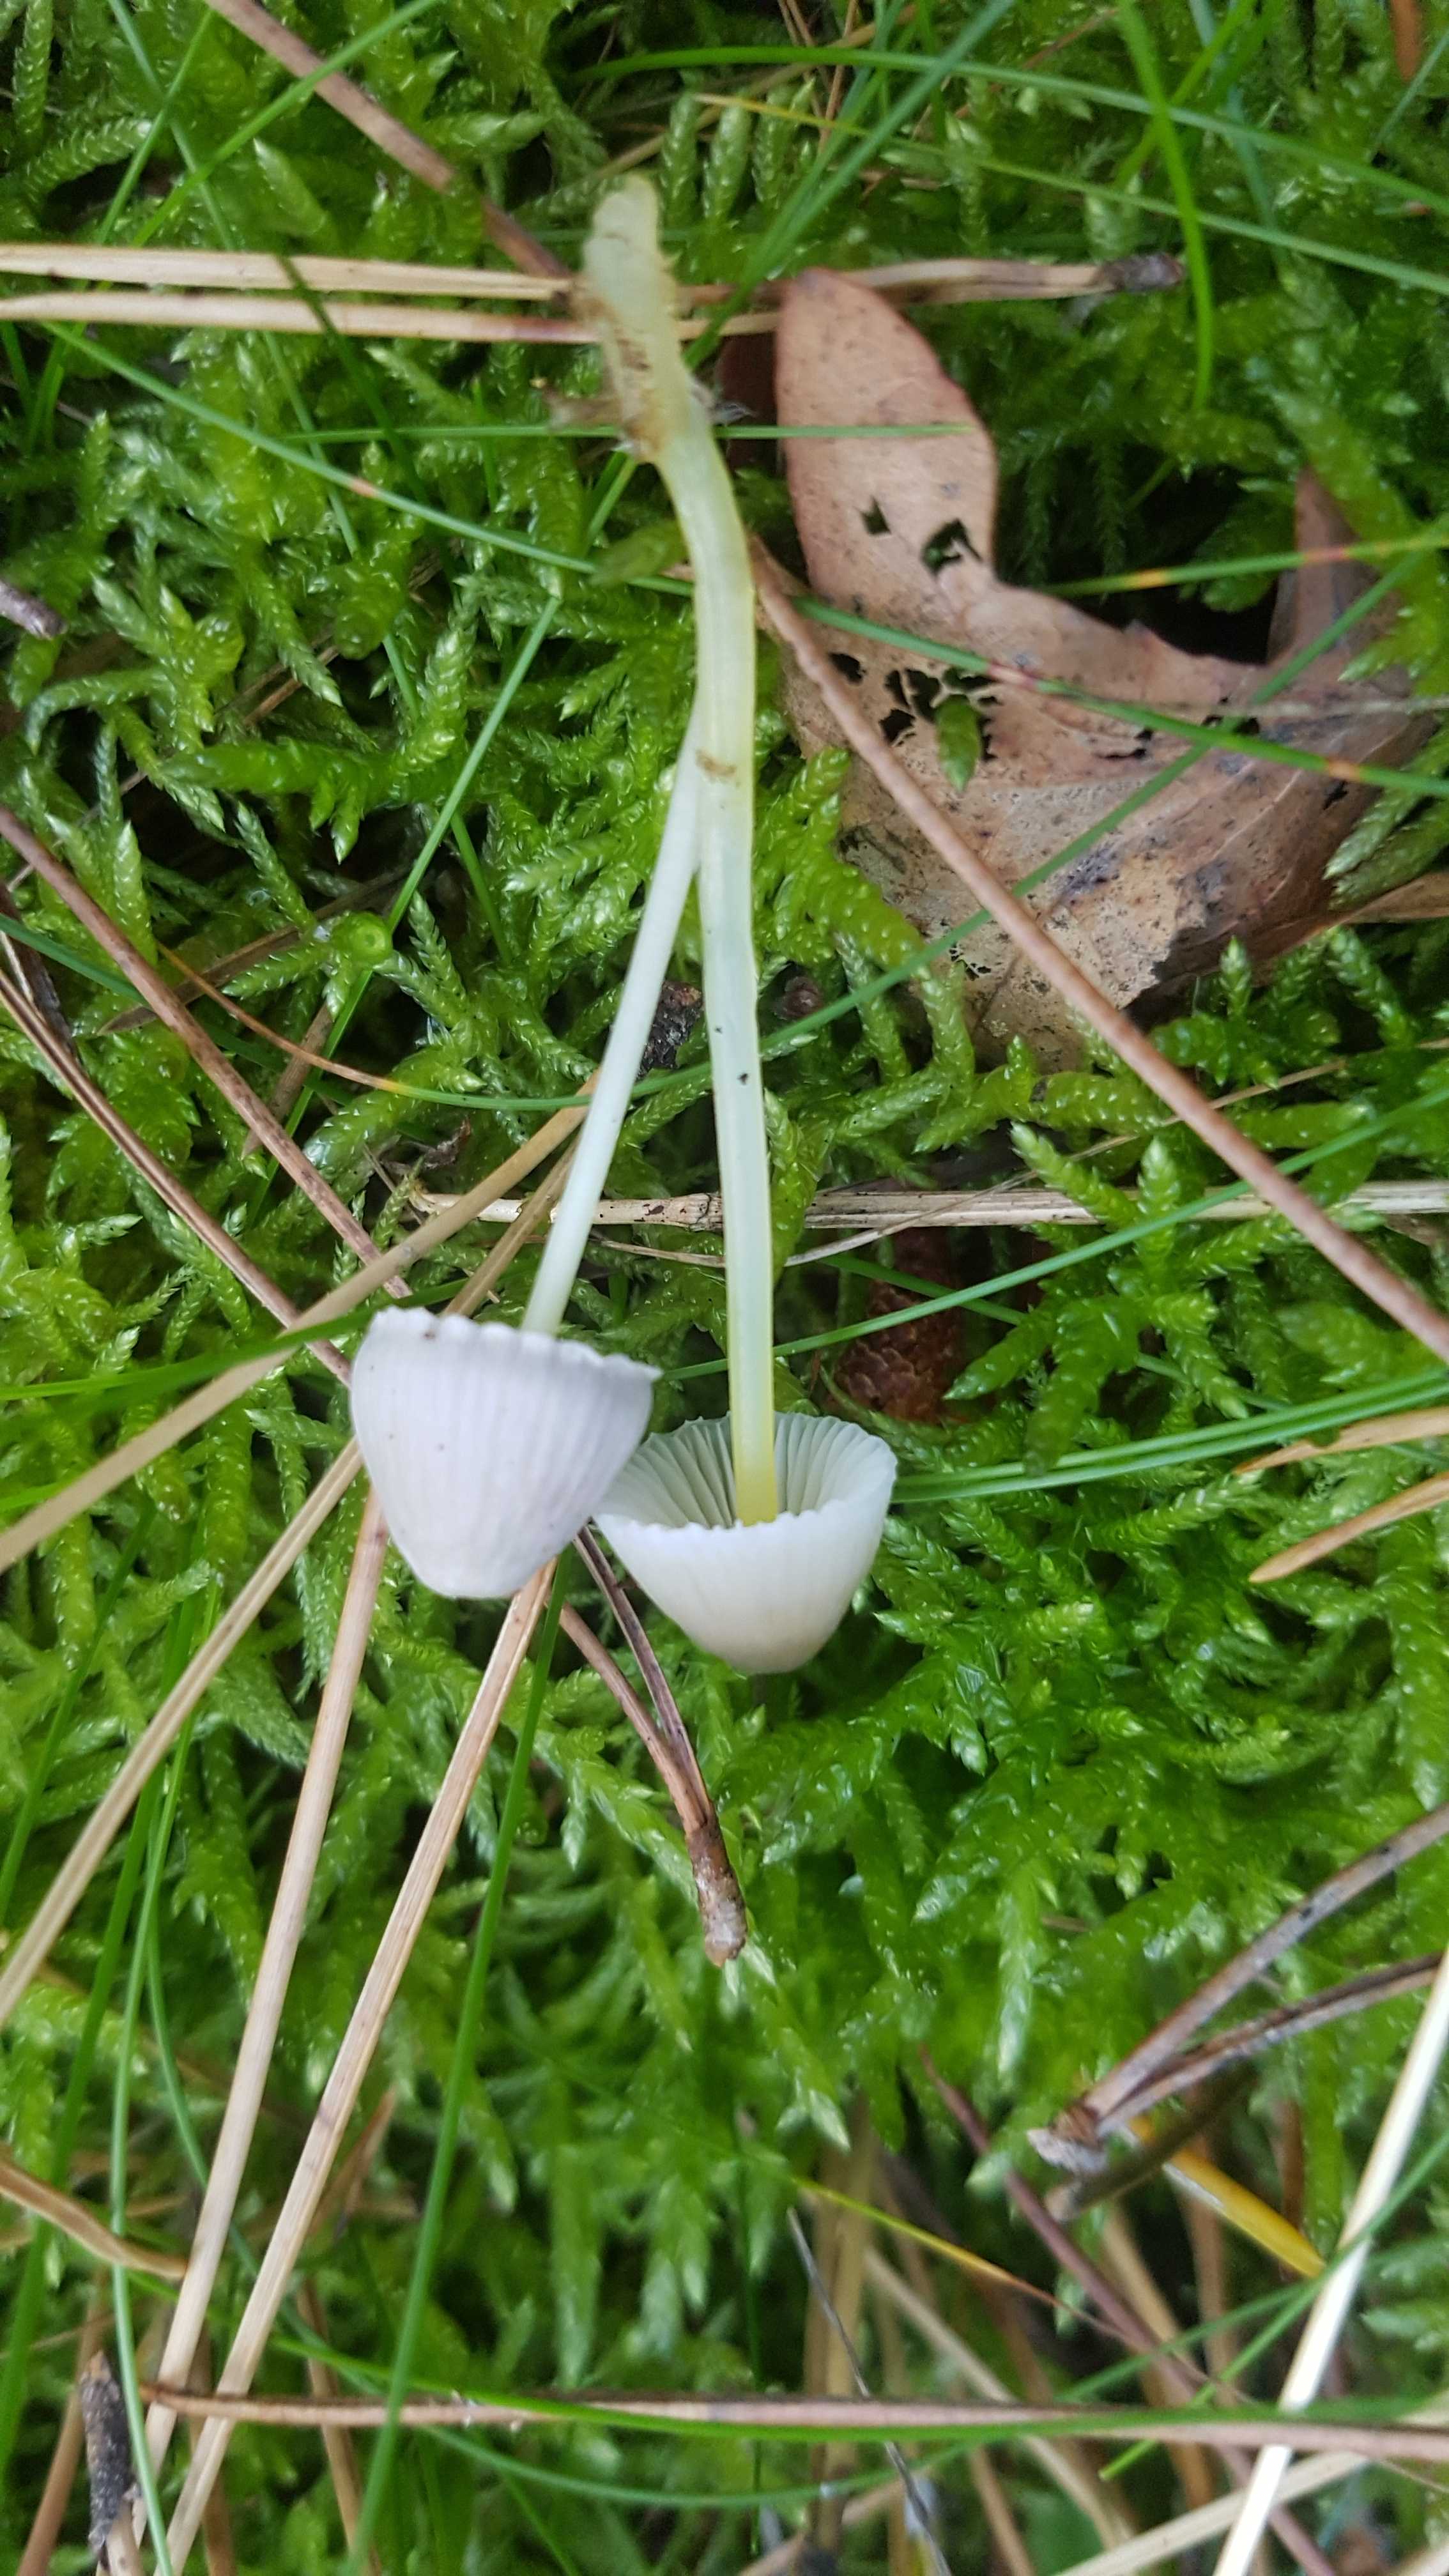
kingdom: Fungi
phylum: Basidiomycota
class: Agaricomycetes
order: Agaricales
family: Mycenaceae
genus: Mycena
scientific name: Mycena epipterygia
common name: gulstokket huesvamp
